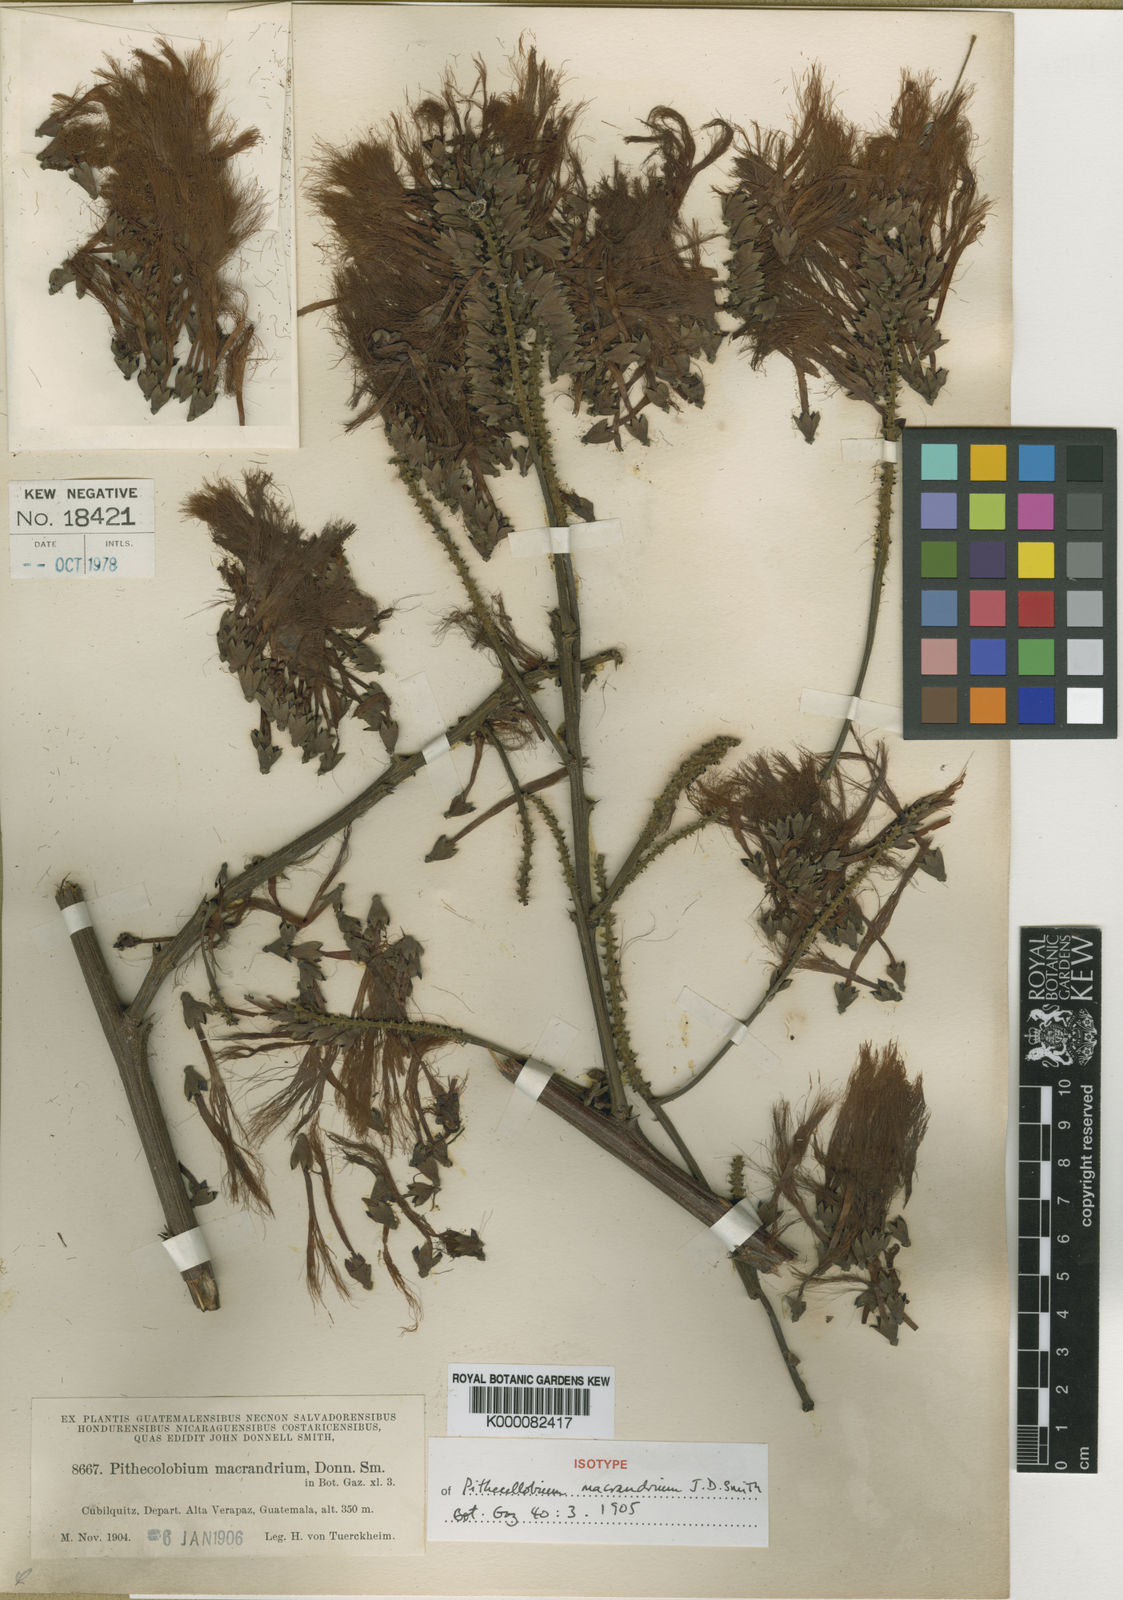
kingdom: Plantae
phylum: Tracheophyta
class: Magnoliopsida
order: Fabales
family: Fabaceae
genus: Pithecellobium
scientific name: Pithecellobium macrandrium
